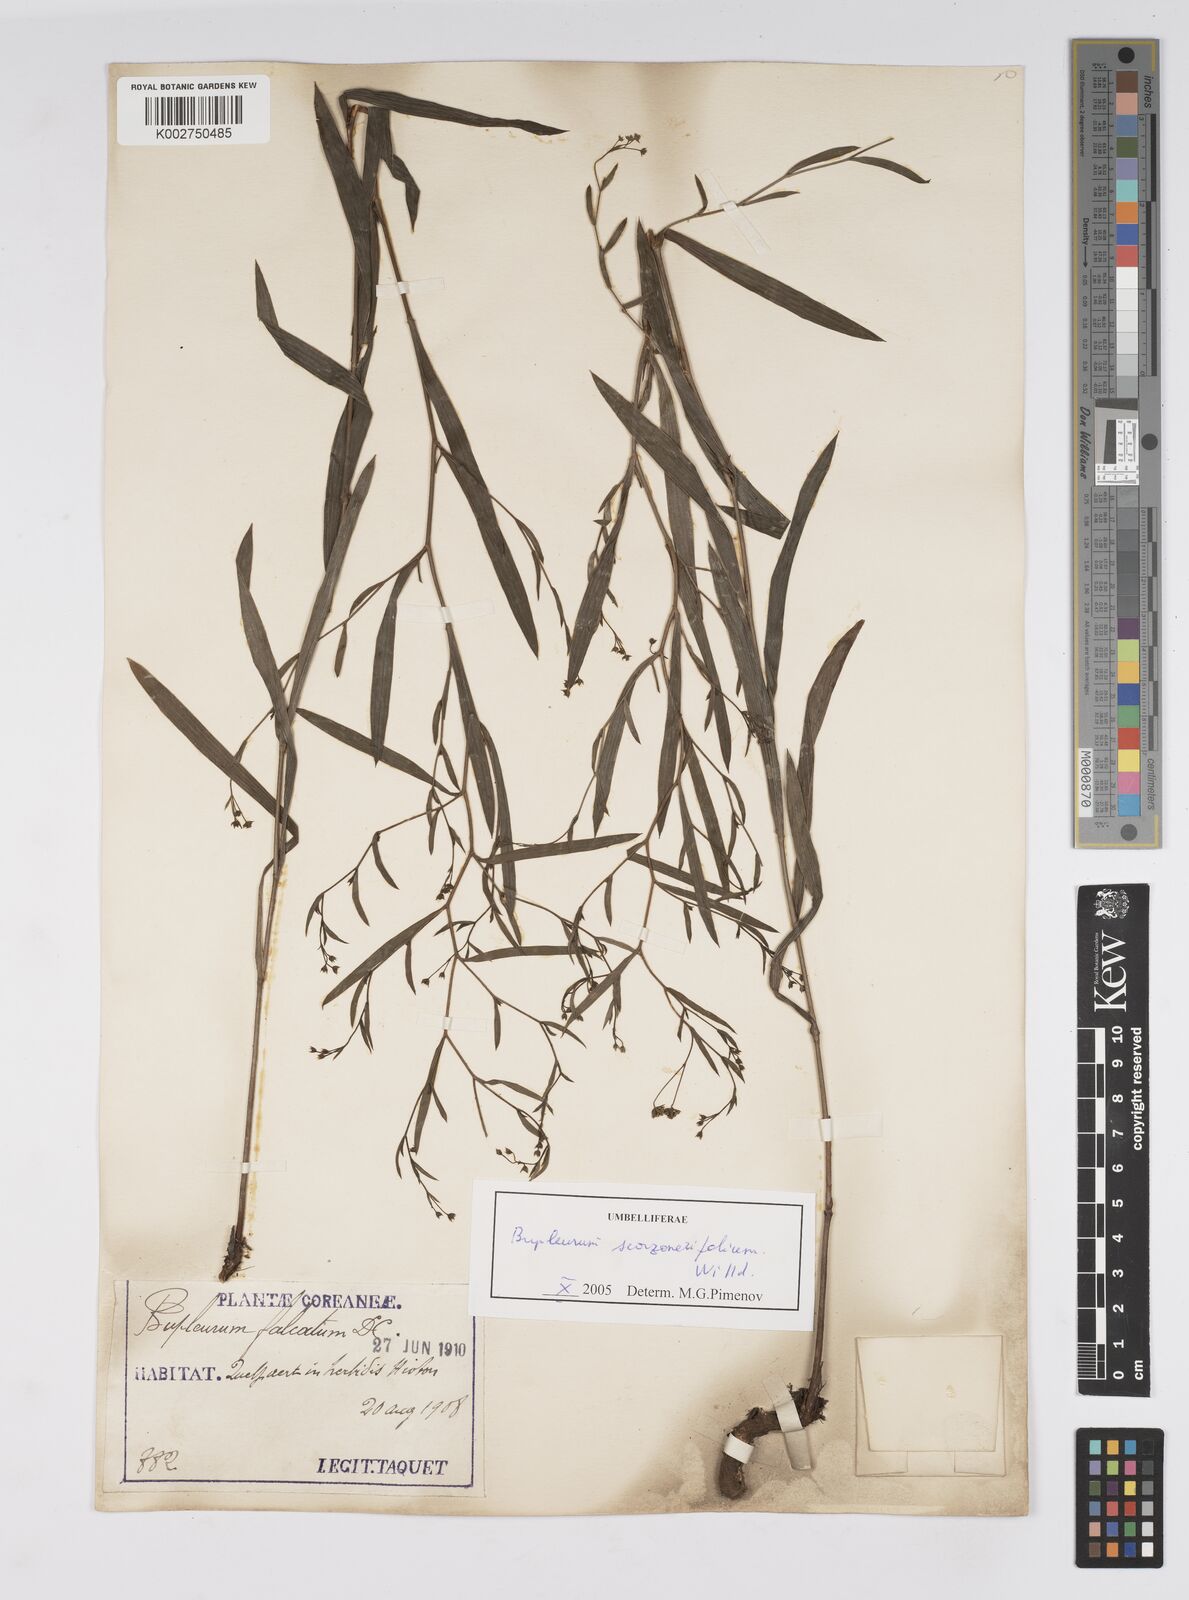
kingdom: Plantae
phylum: Tracheophyta
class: Magnoliopsida
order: Apiales
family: Apiaceae
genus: Bupleurum
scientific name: Bupleurum krylovianum
